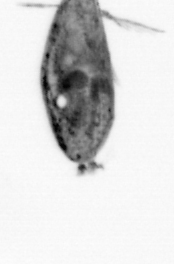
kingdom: Animalia
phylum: Arthropoda
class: Maxillopoda
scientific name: Maxillopoda
